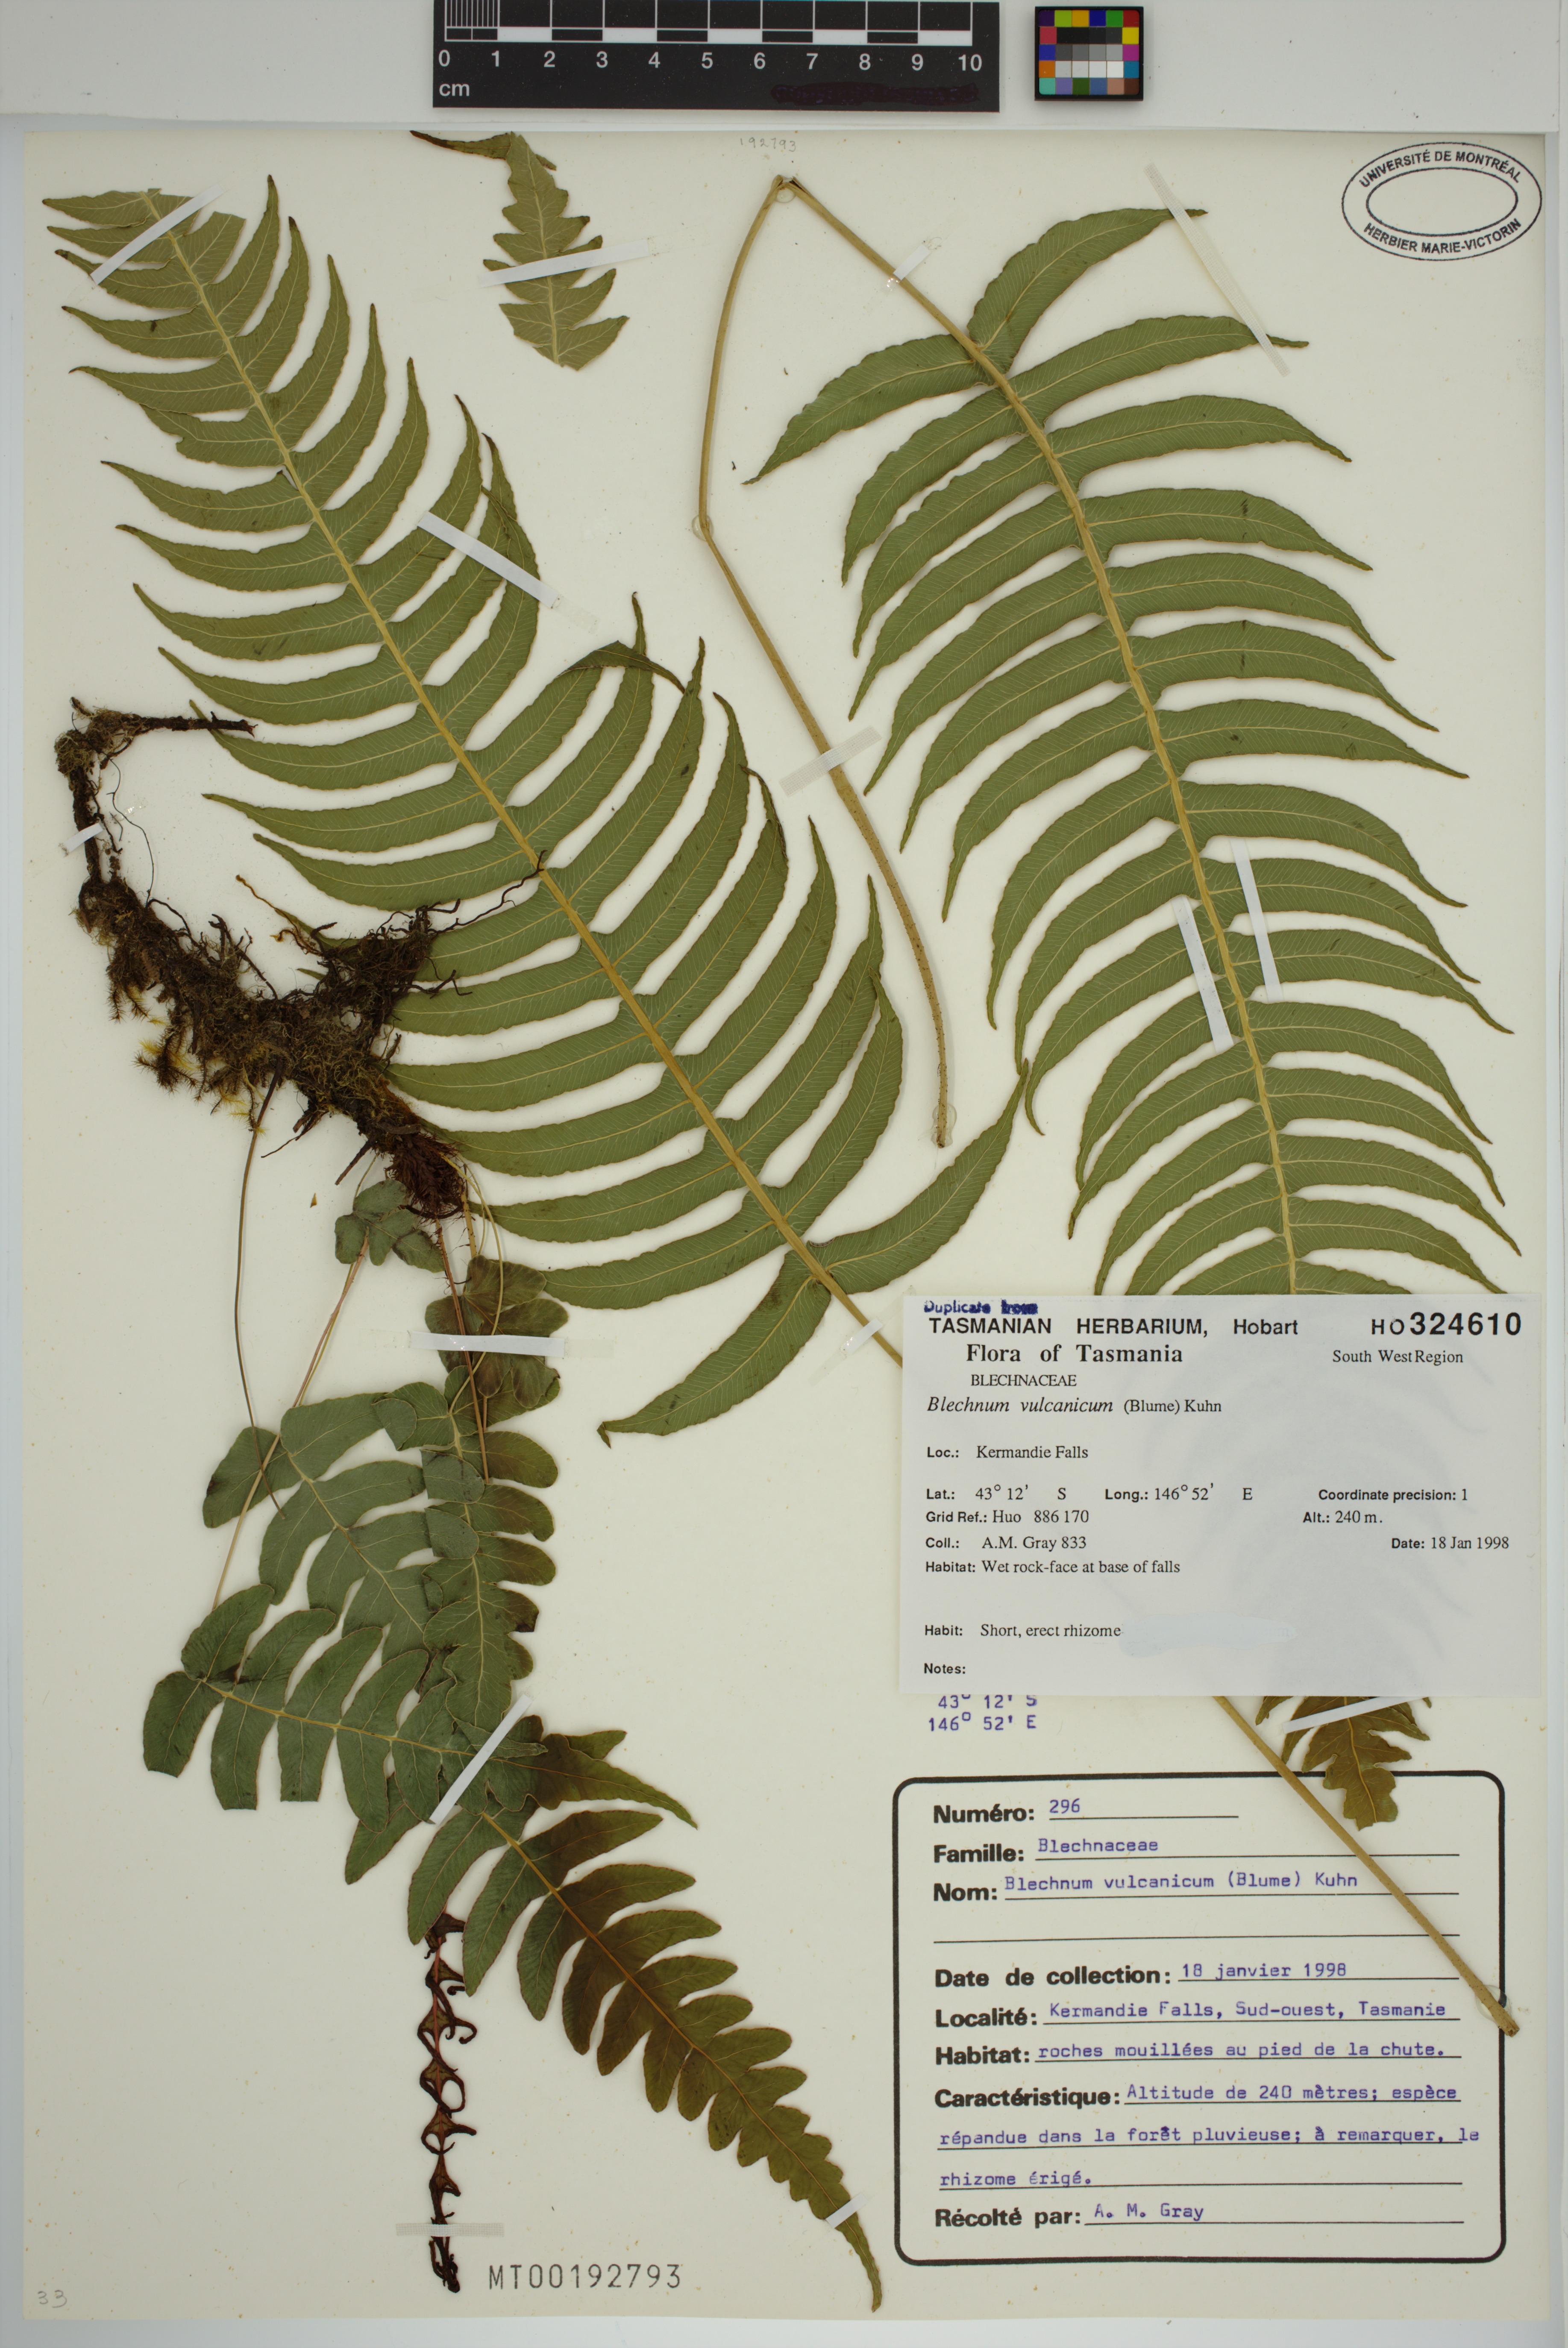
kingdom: Plantae
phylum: Tracheophyta
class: Polypodiopsida
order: Polypodiales
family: Blechnaceae
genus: Cranfillia
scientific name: Cranfillia vulcanica
